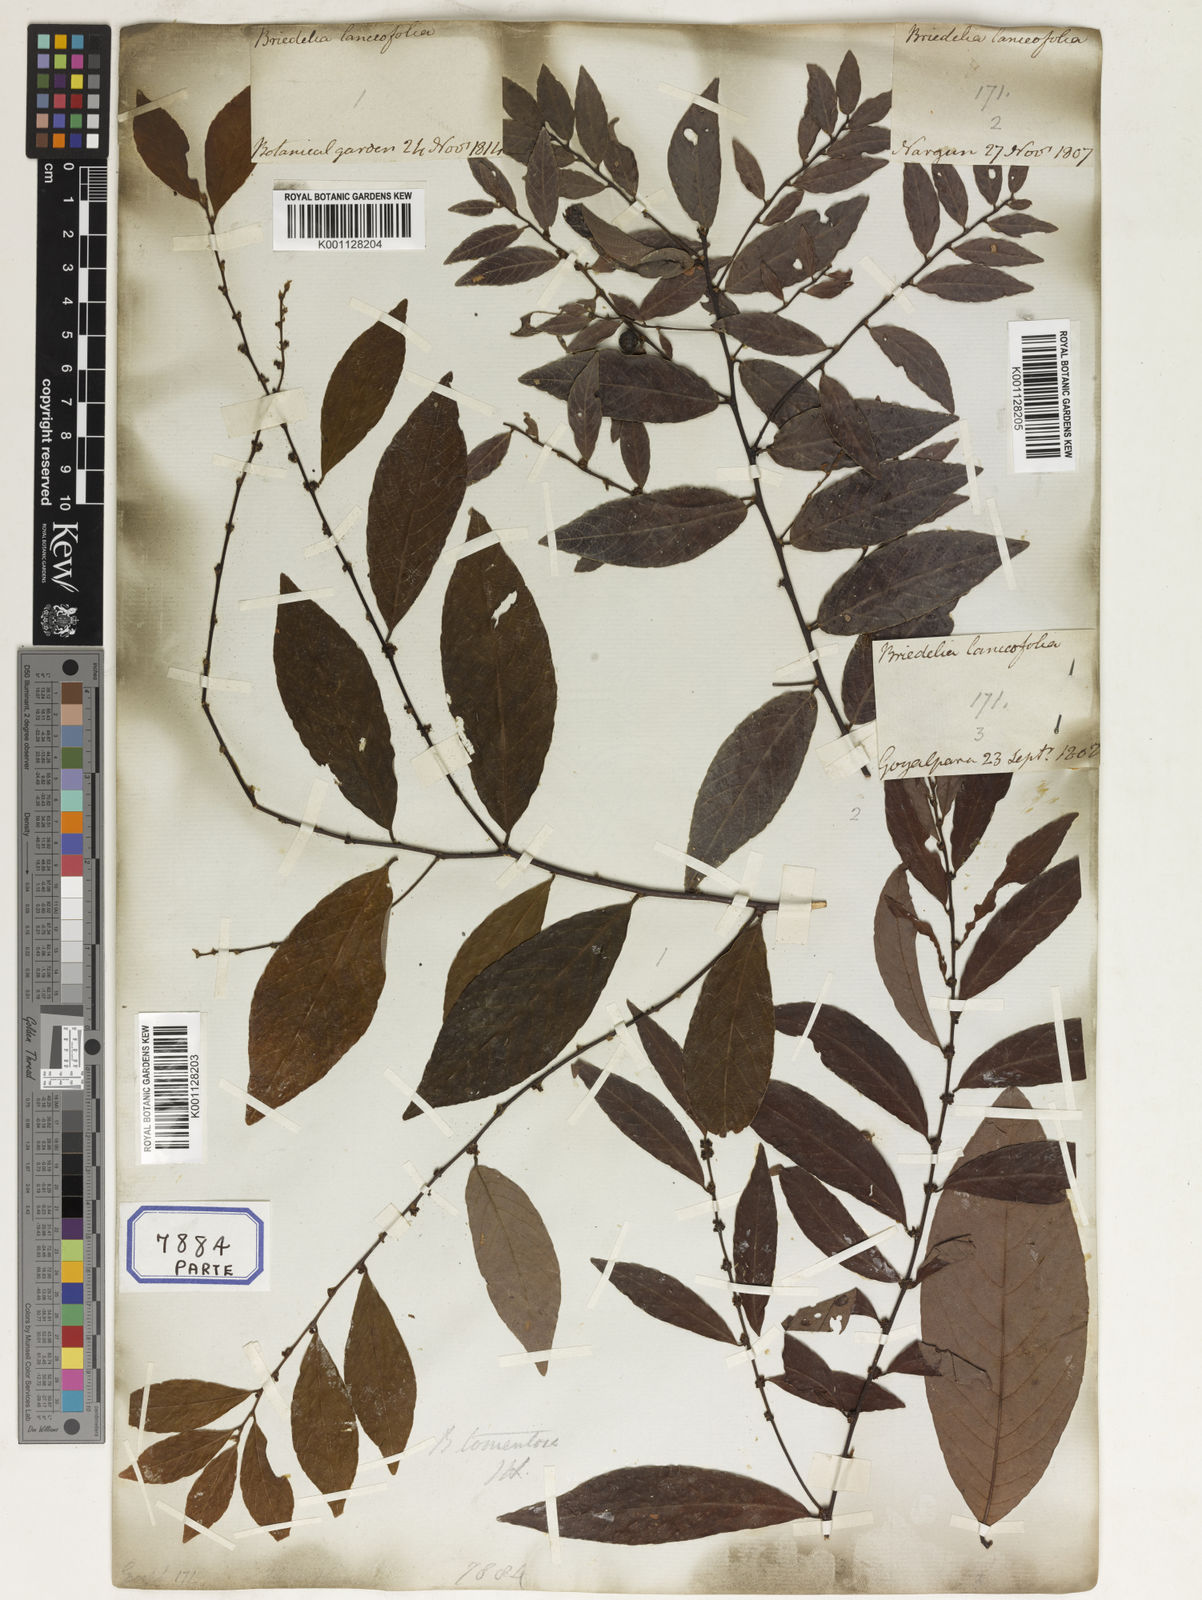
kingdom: Plantae
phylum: Tracheophyta
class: Magnoliopsida
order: Malpighiales
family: Euphorbiaceae
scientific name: Euphorbiaceae
